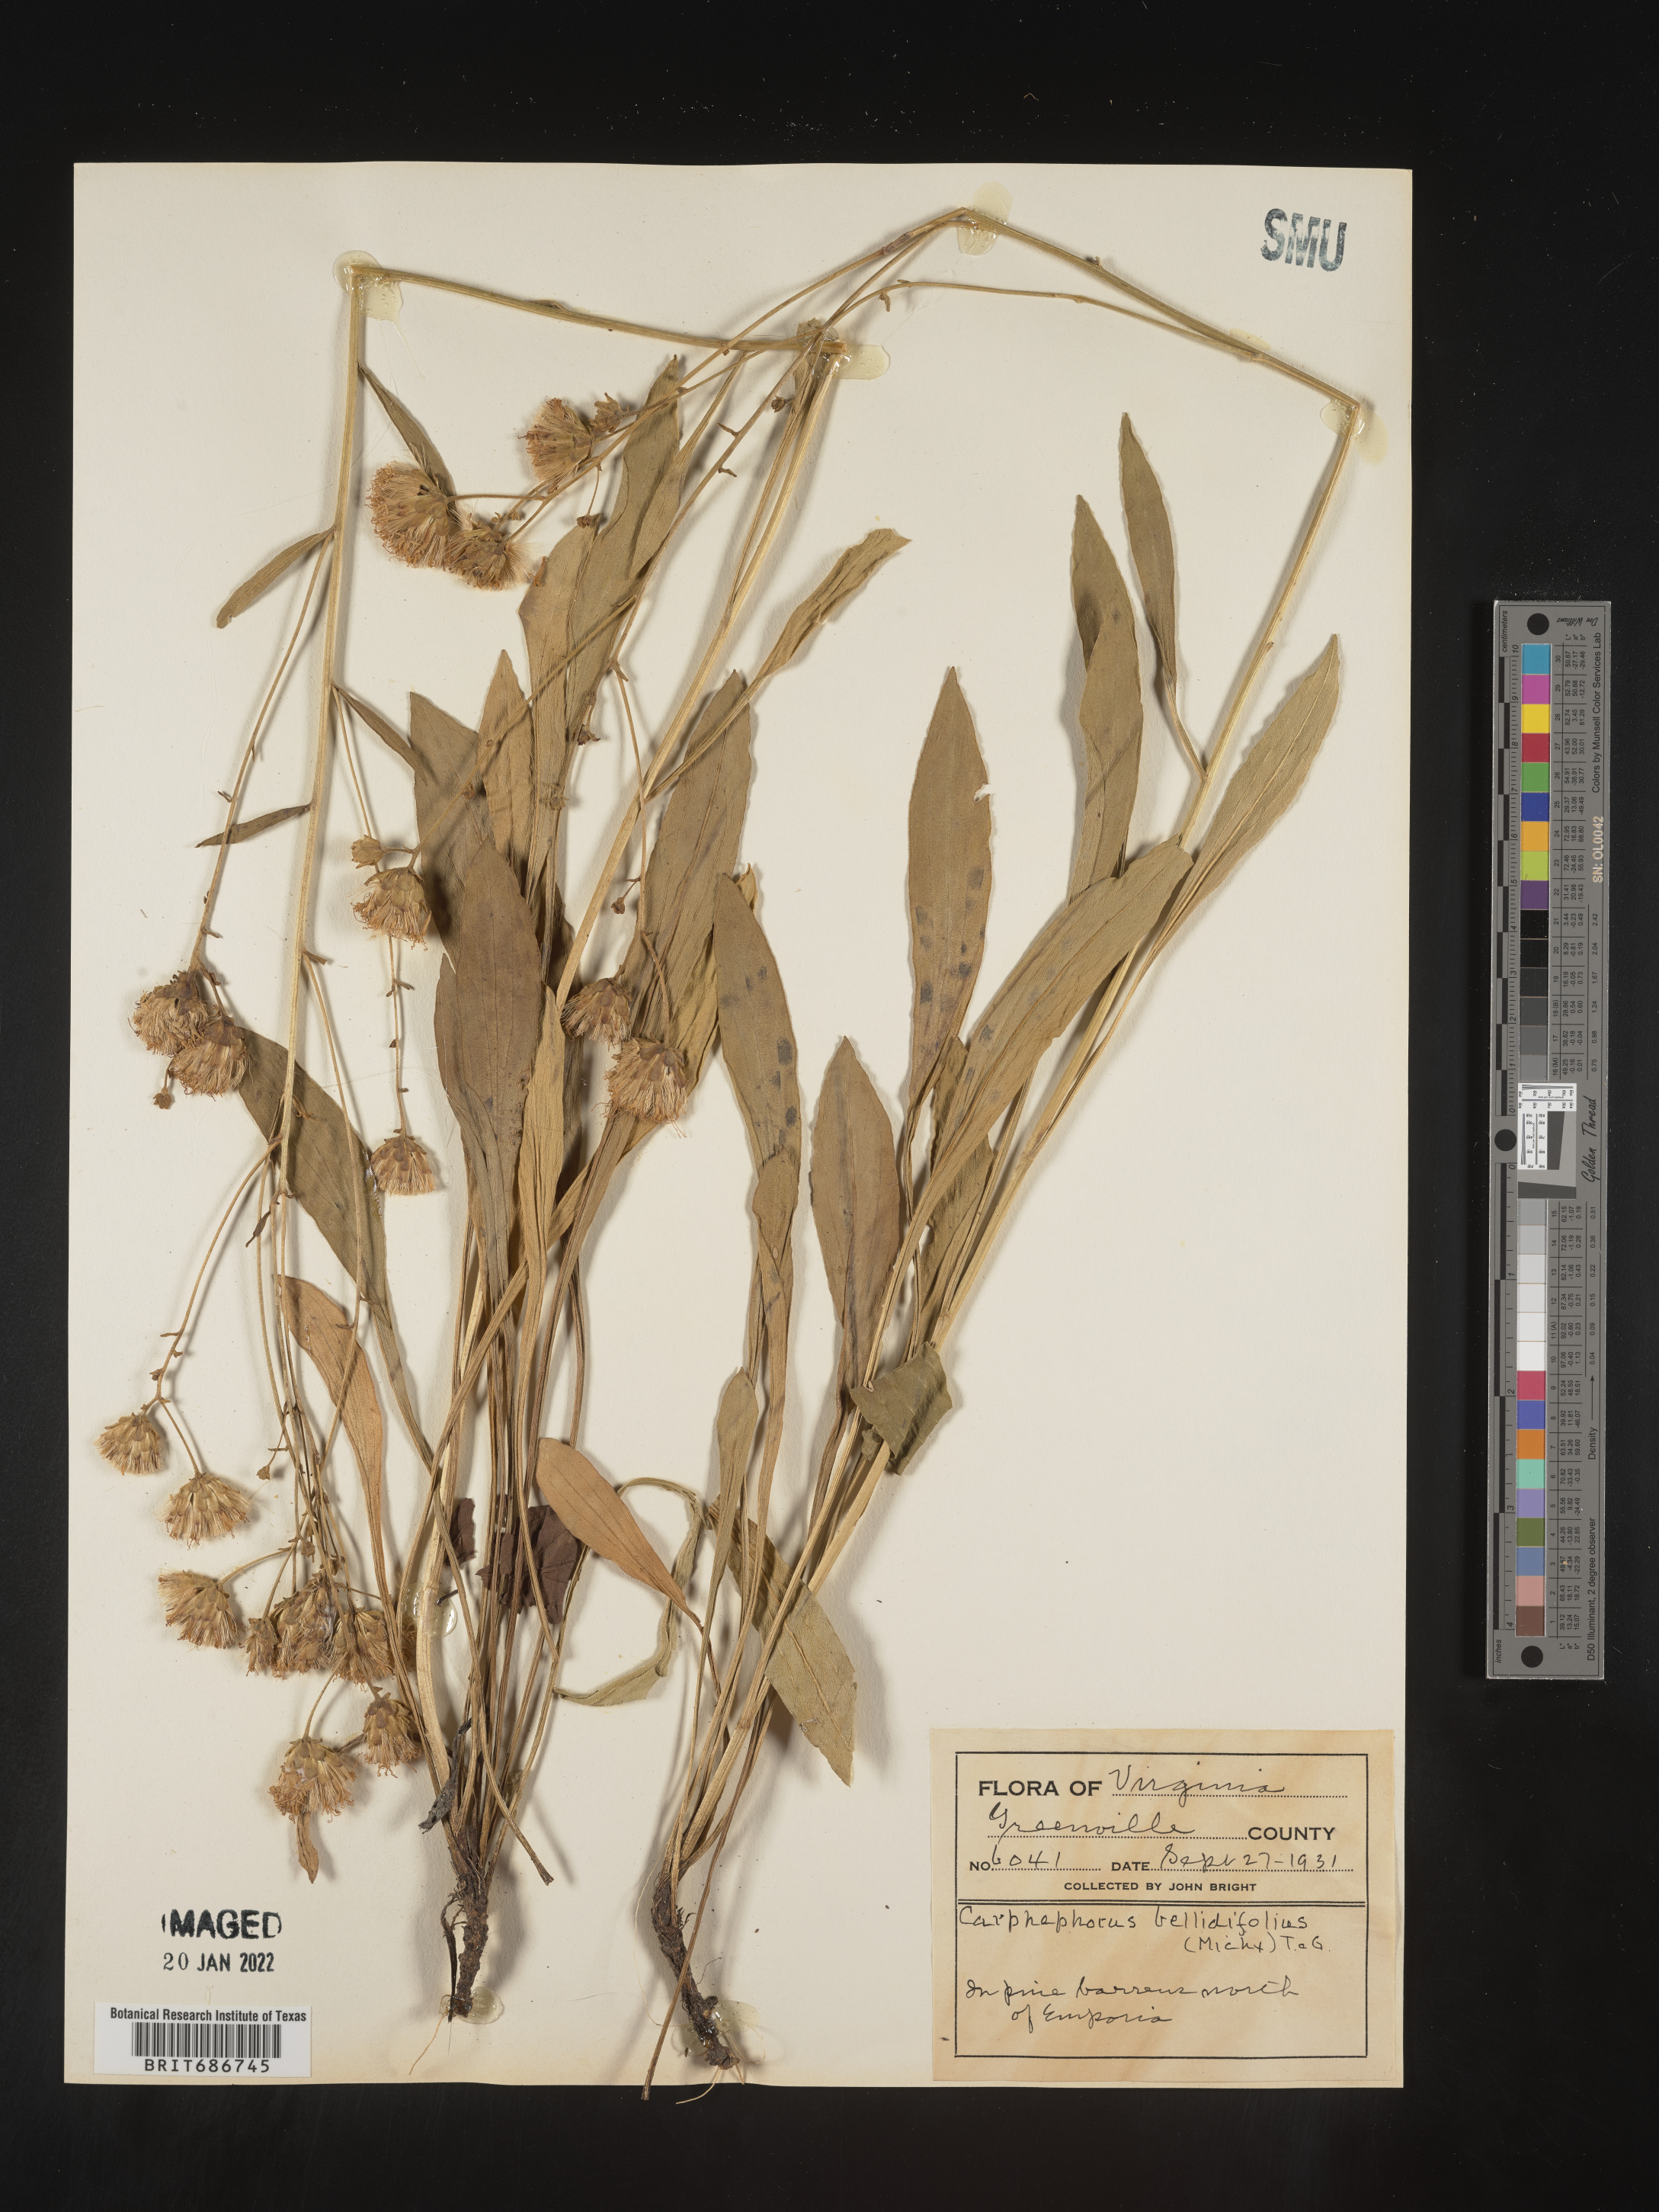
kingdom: Plantae
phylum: Tracheophyta
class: Magnoliopsida
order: Asterales
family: Asteraceae
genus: Carphephorus
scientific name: Carphephorus bellidifolius
